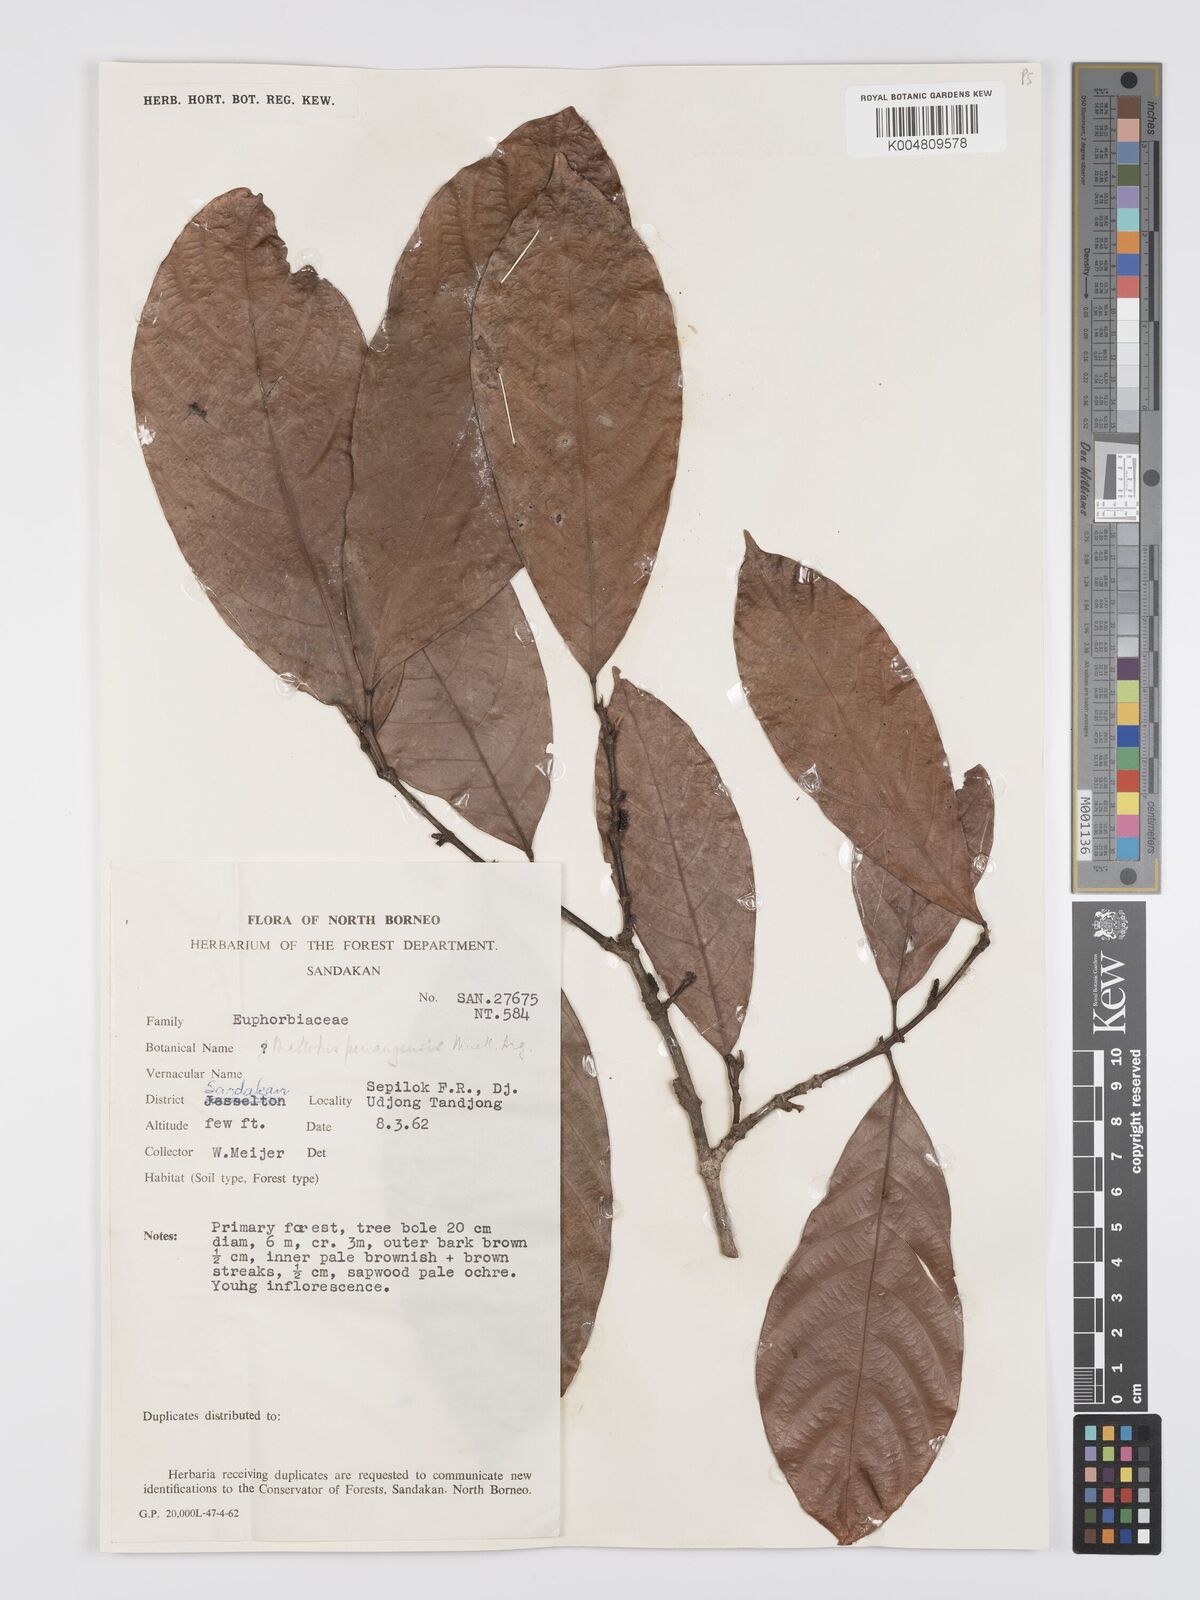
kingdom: Plantae
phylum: Tracheophyta
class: Magnoliopsida
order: Malpighiales
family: Euphorbiaceae
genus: Hancea
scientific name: Hancea penangensis
